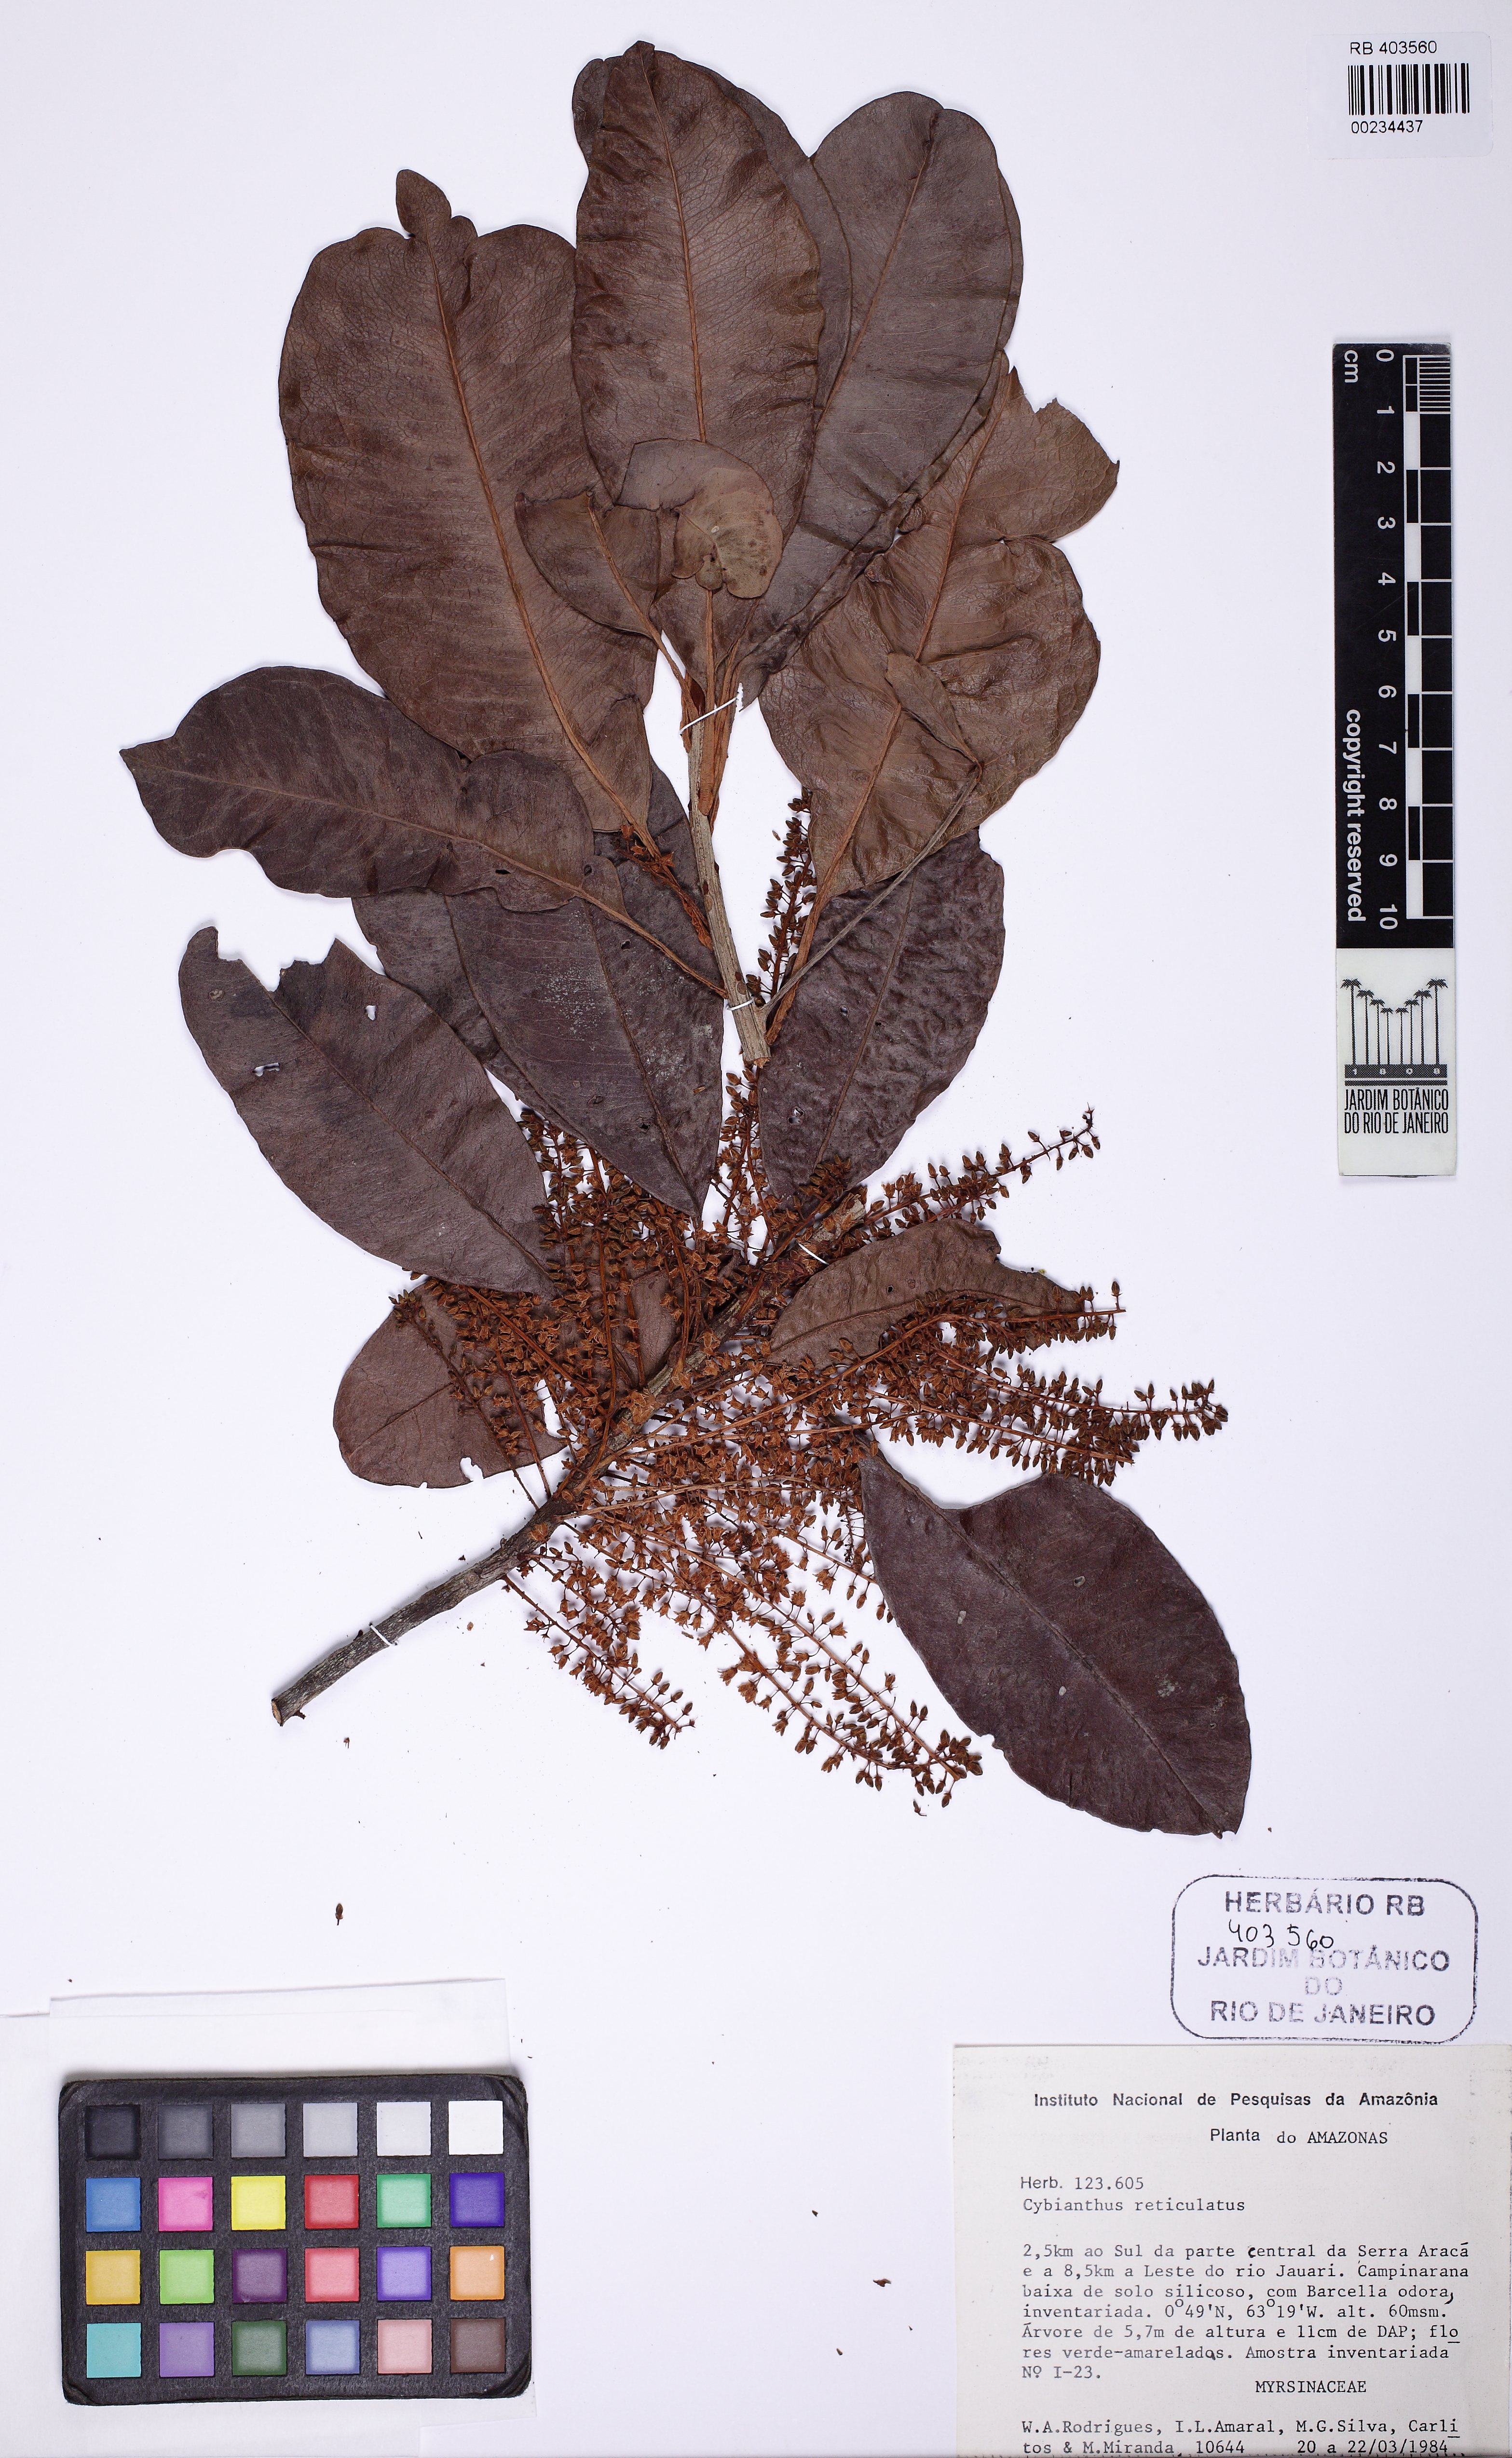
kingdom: Plantae
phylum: Tracheophyta
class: Magnoliopsida
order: Ericales
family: Primulaceae
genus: Cybianthus
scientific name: Cybianthus reticulatus
